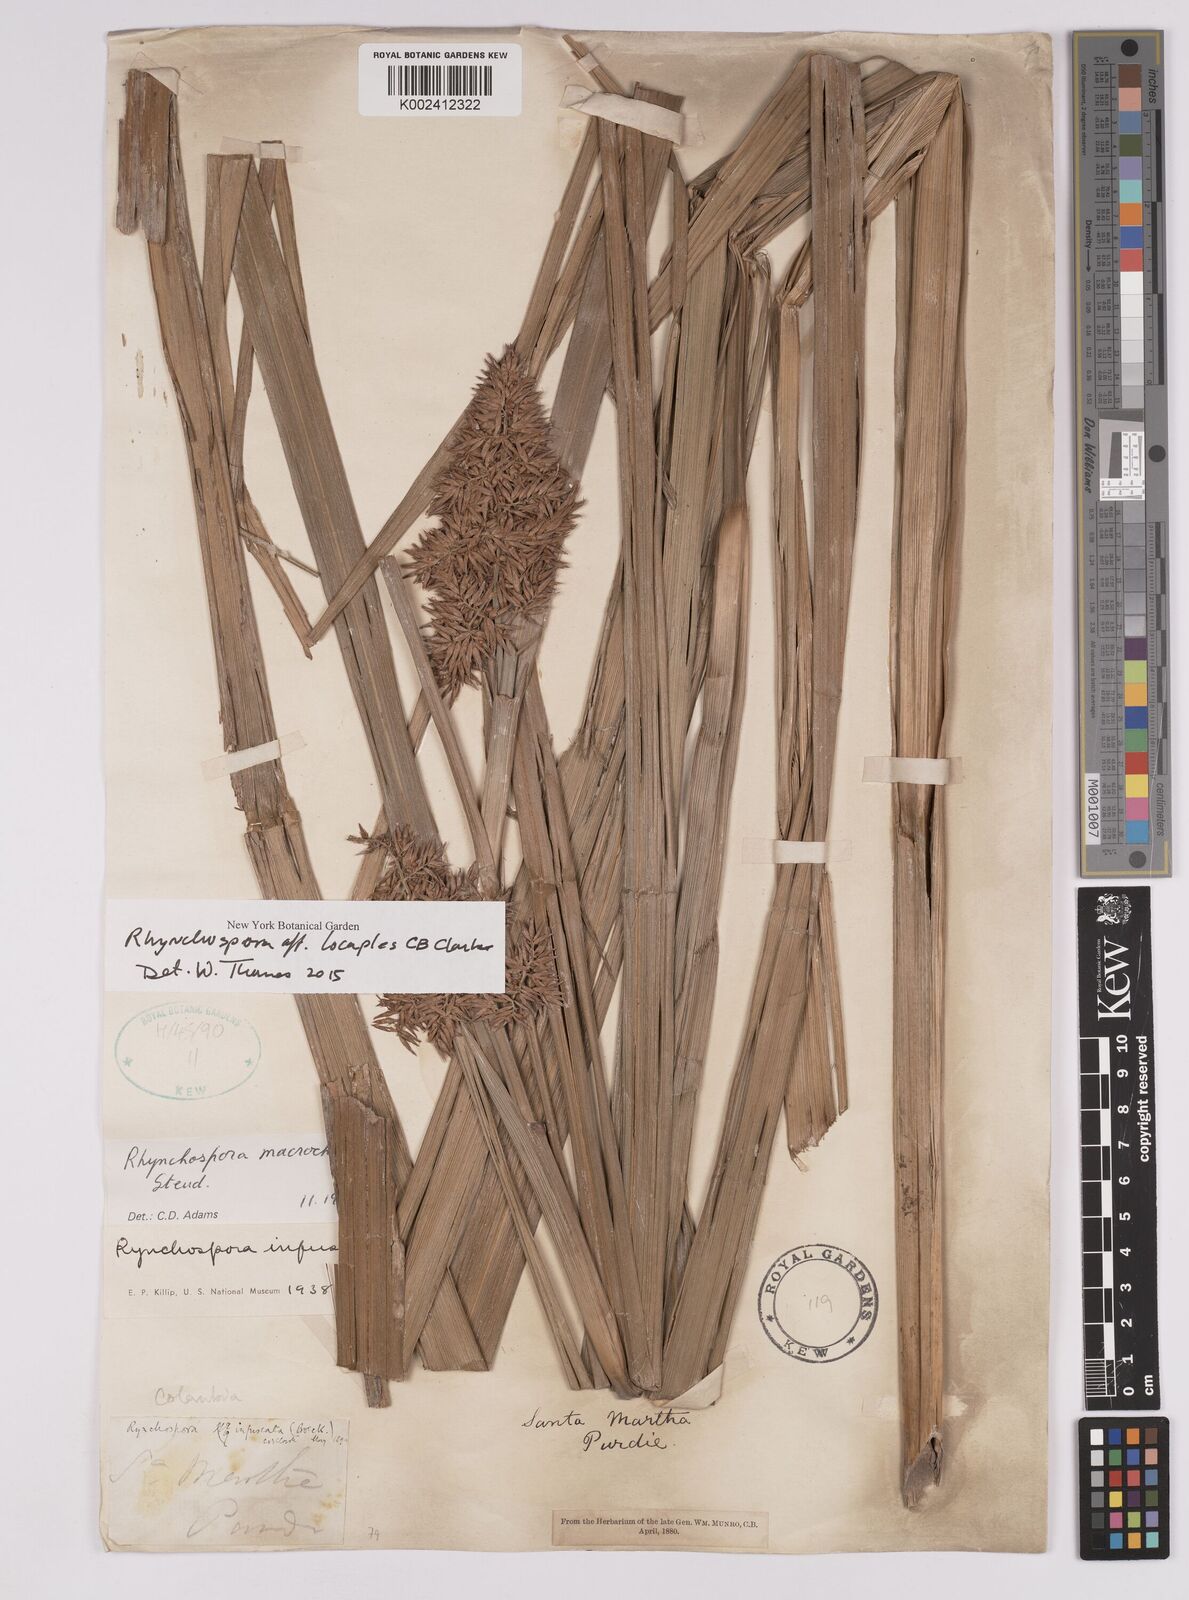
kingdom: Plantae
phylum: Tracheophyta
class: Liliopsida
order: Poales
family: Cyperaceae
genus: Rhynchospora
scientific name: Rhynchospora locuples
